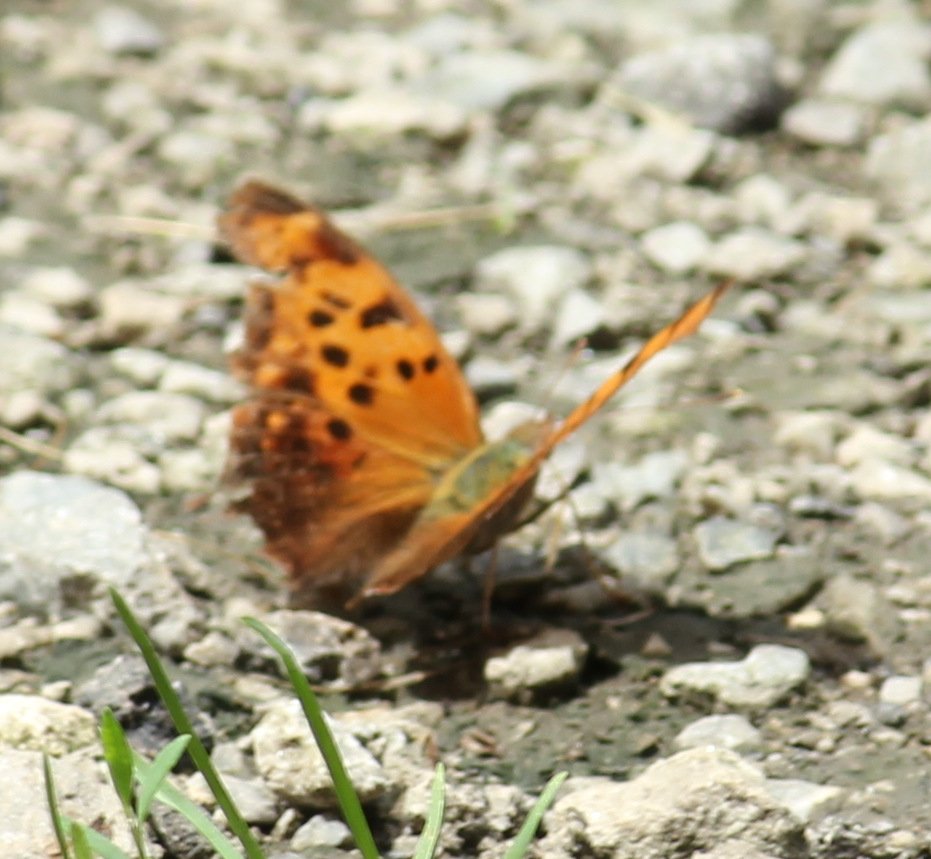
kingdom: Animalia
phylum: Arthropoda
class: Insecta
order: Lepidoptera
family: Nymphalidae
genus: Polygonia
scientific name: Polygonia interrogationis
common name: Question Mark
